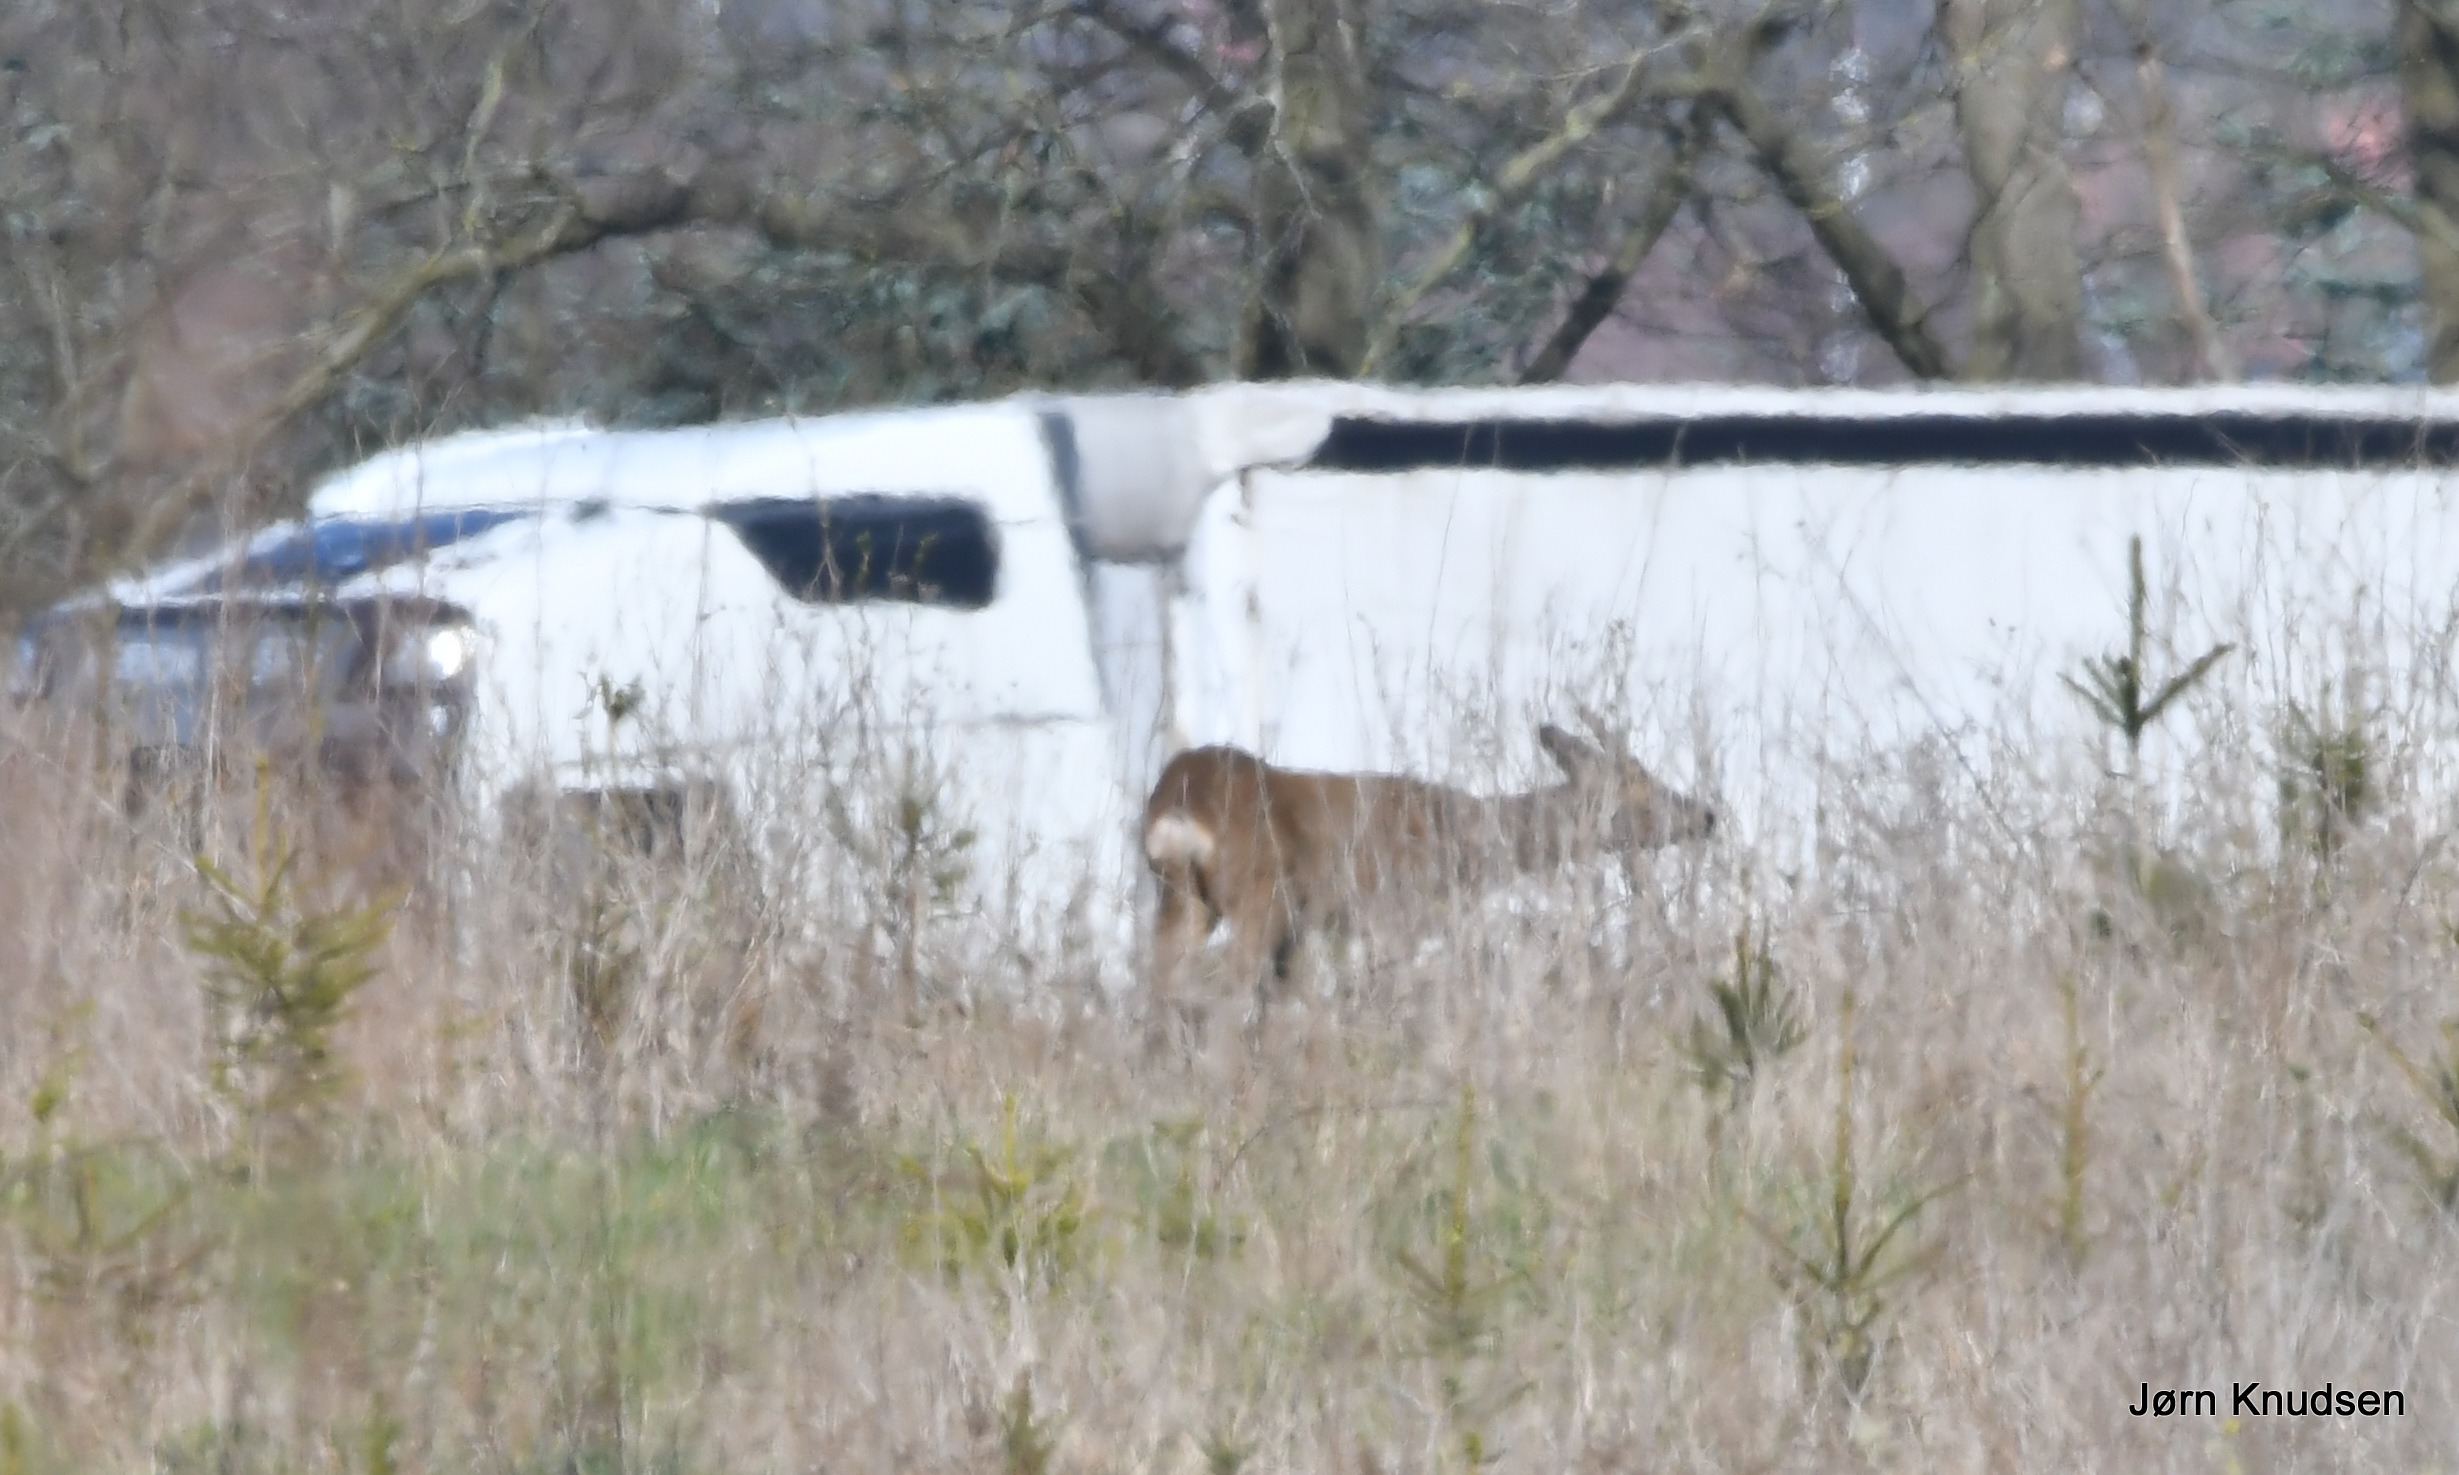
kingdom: Animalia
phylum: Chordata
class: Mammalia
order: Artiodactyla
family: Cervidae
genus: Capreolus
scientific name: Capreolus capreolus
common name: Rådyr
